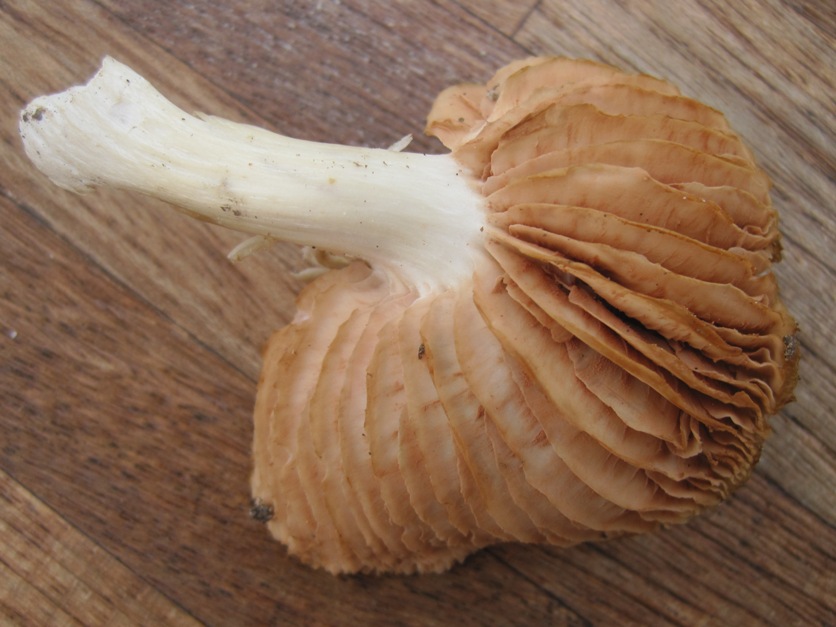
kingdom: Fungi
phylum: Basidiomycota
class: Agaricomycetes
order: Agaricales
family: Entolomataceae
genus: Entoloma
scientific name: Entoloma rhodopolium
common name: skov-rødblad
